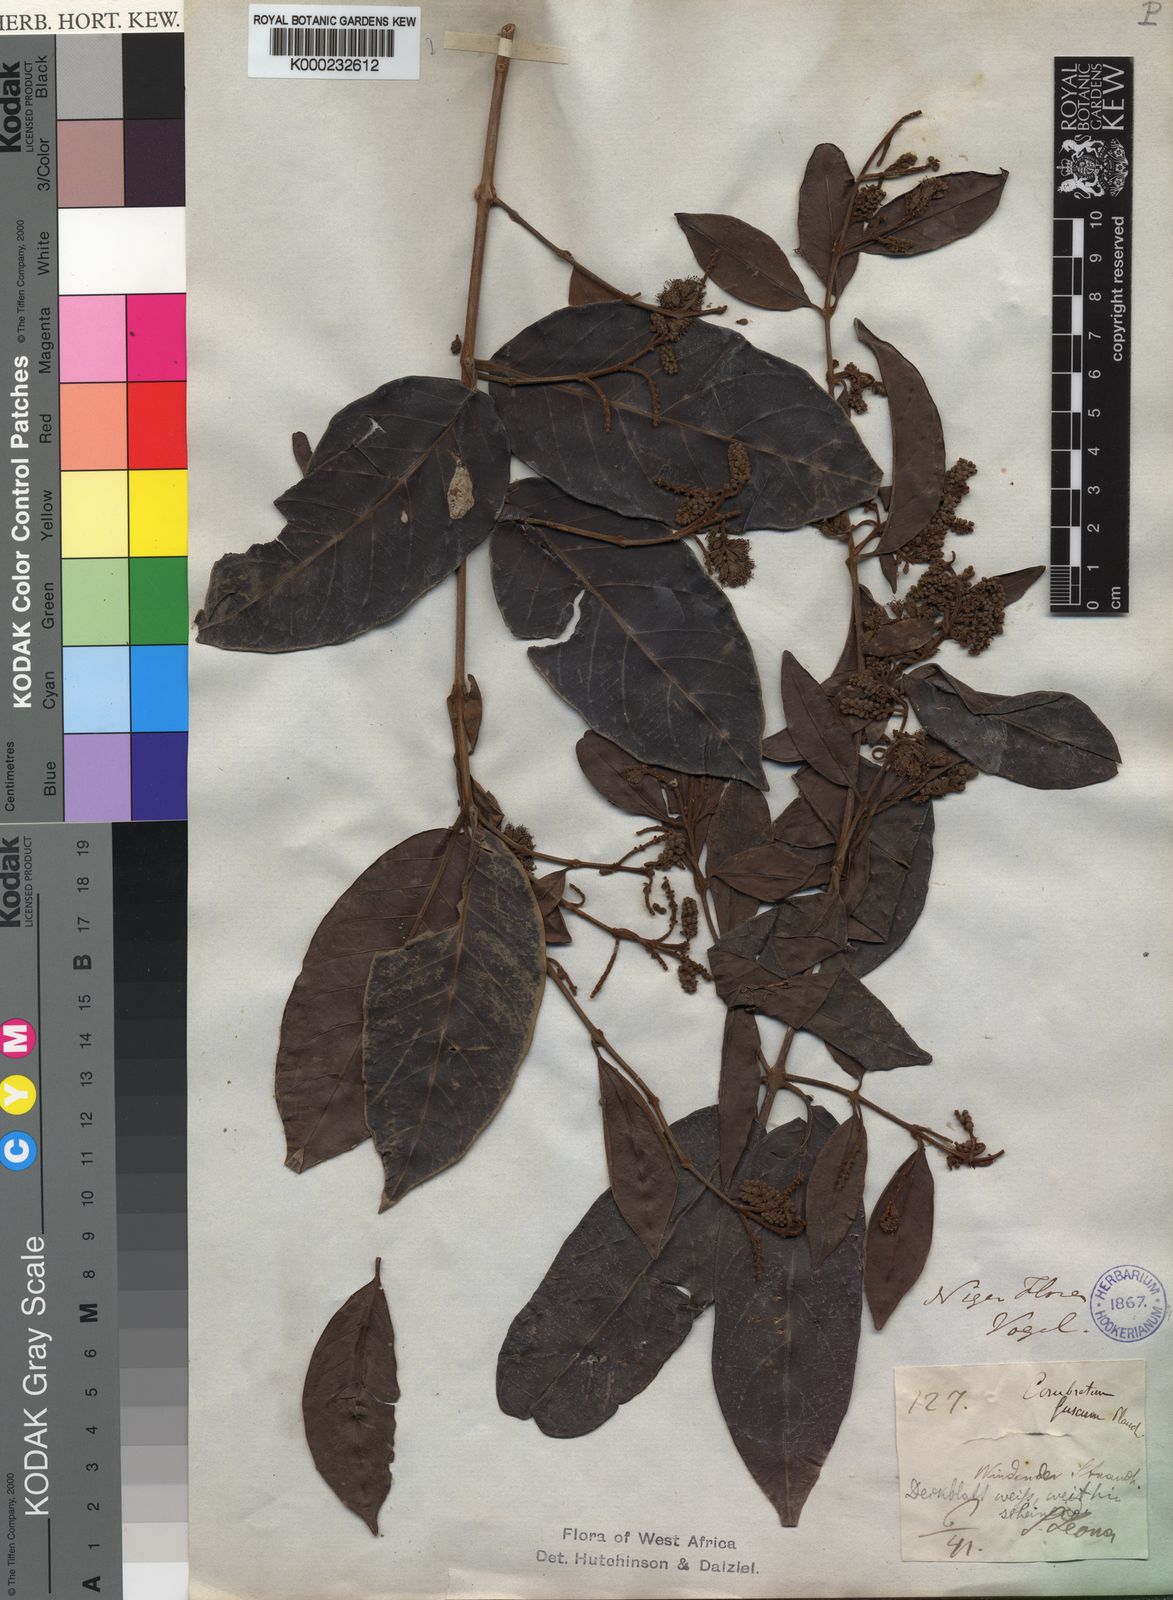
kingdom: Plantae
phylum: Tracheophyta
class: Magnoliopsida
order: Myrtales
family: Combretaceae
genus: Combretum
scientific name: Combretum fuscum
